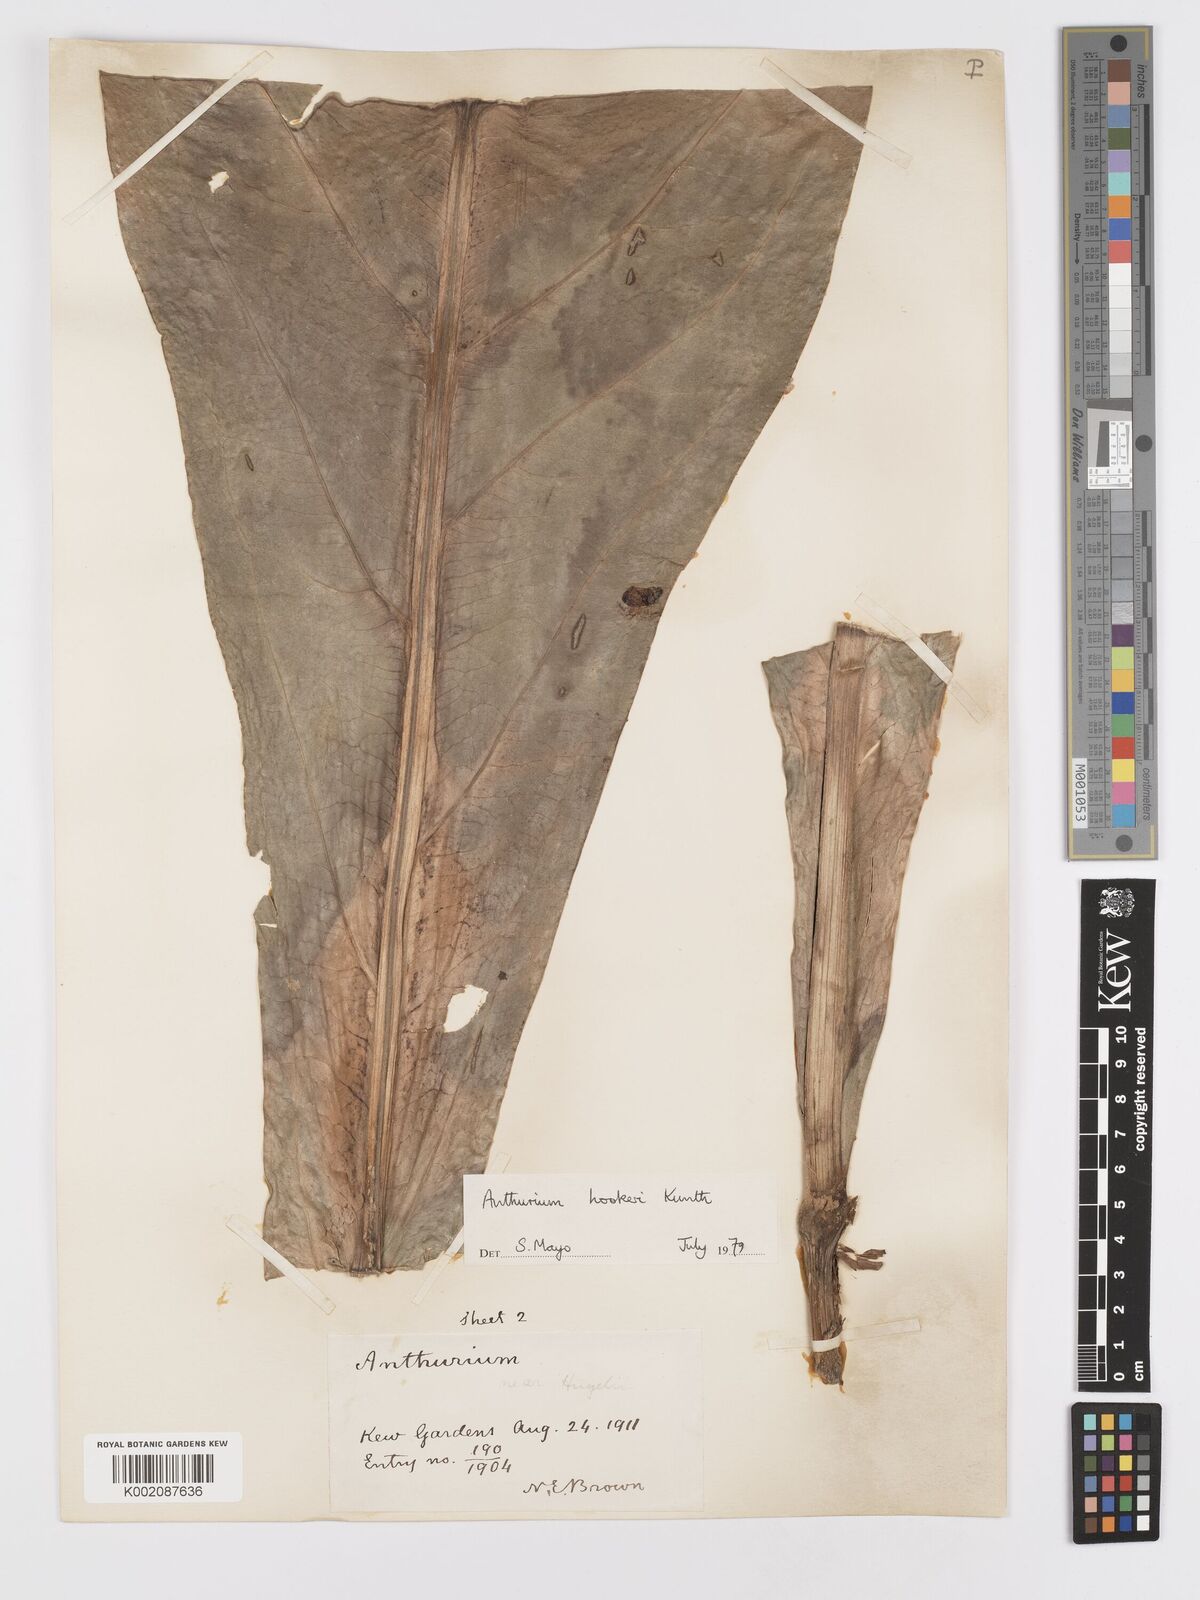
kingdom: Plantae
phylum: Tracheophyta
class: Liliopsida
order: Alismatales
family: Araceae
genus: Anthurium
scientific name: Anthurium hookeri
